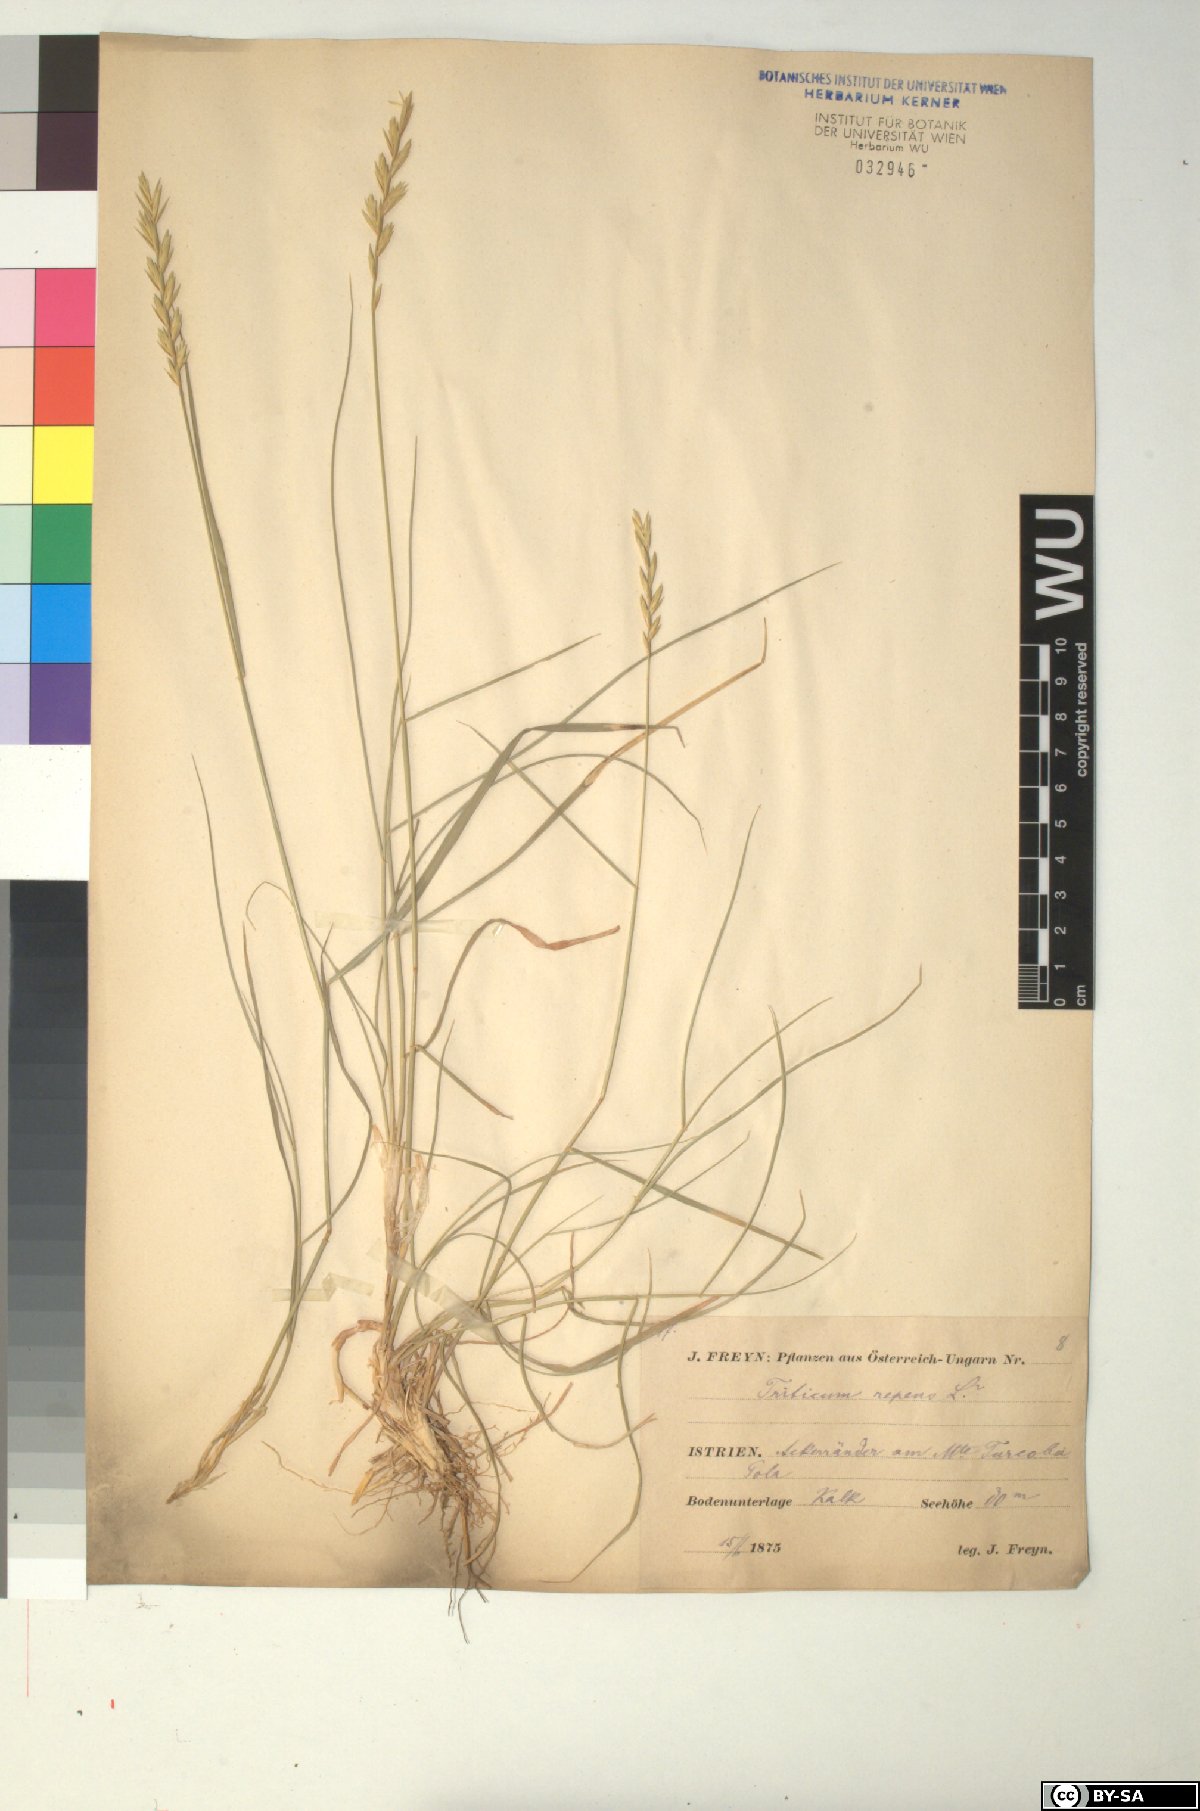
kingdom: Plantae
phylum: Tracheophyta
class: Liliopsida
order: Poales
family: Poaceae
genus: Elymus
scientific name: Elymus repens
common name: Quackgrass
